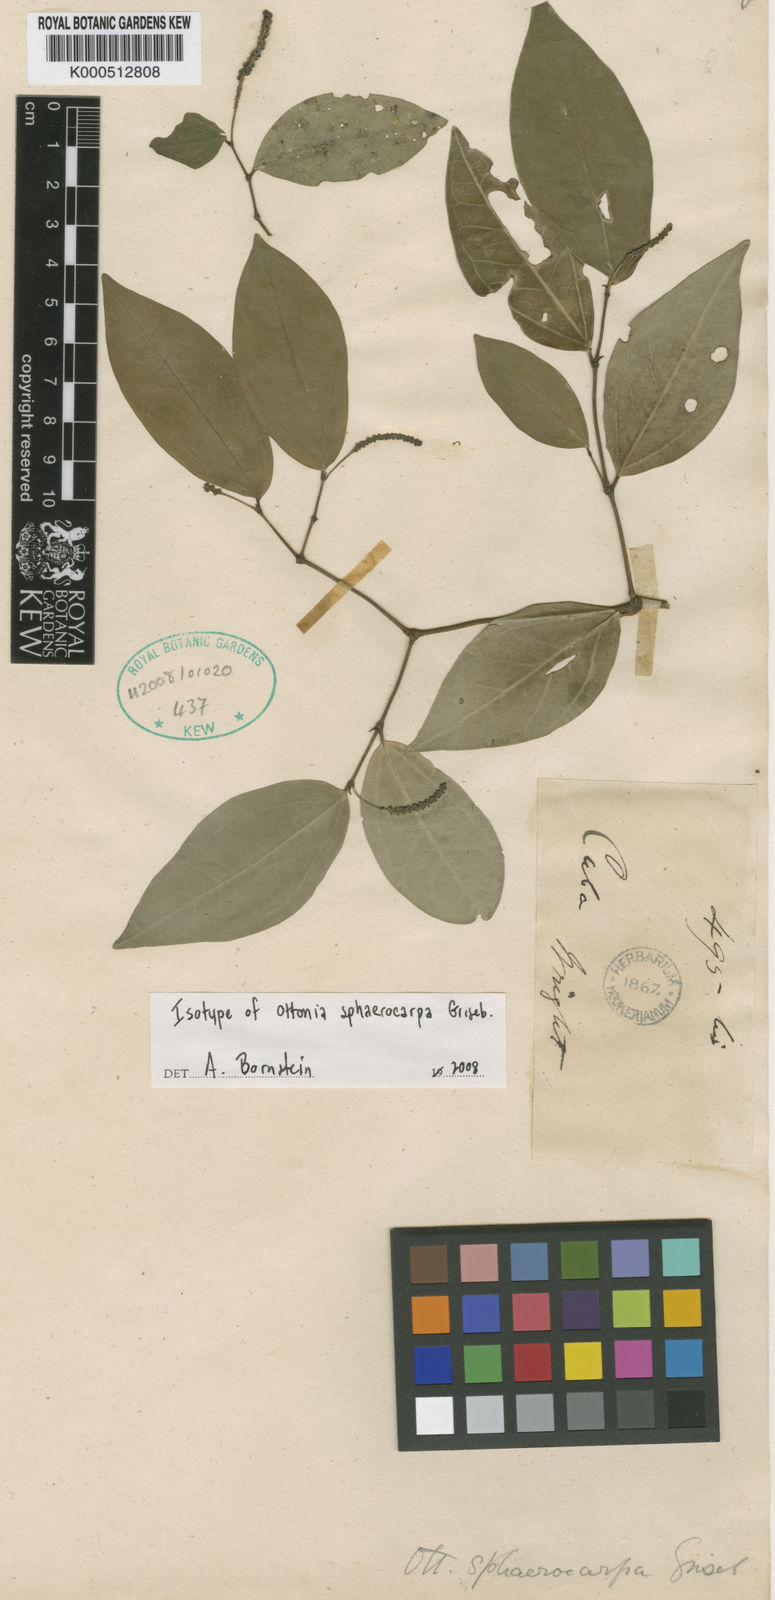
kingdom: Plantae
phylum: Tracheophyta
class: Magnoliopsida
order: Piperales
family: Piperaceae
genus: Piper
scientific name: Piper sphaerocarpum
